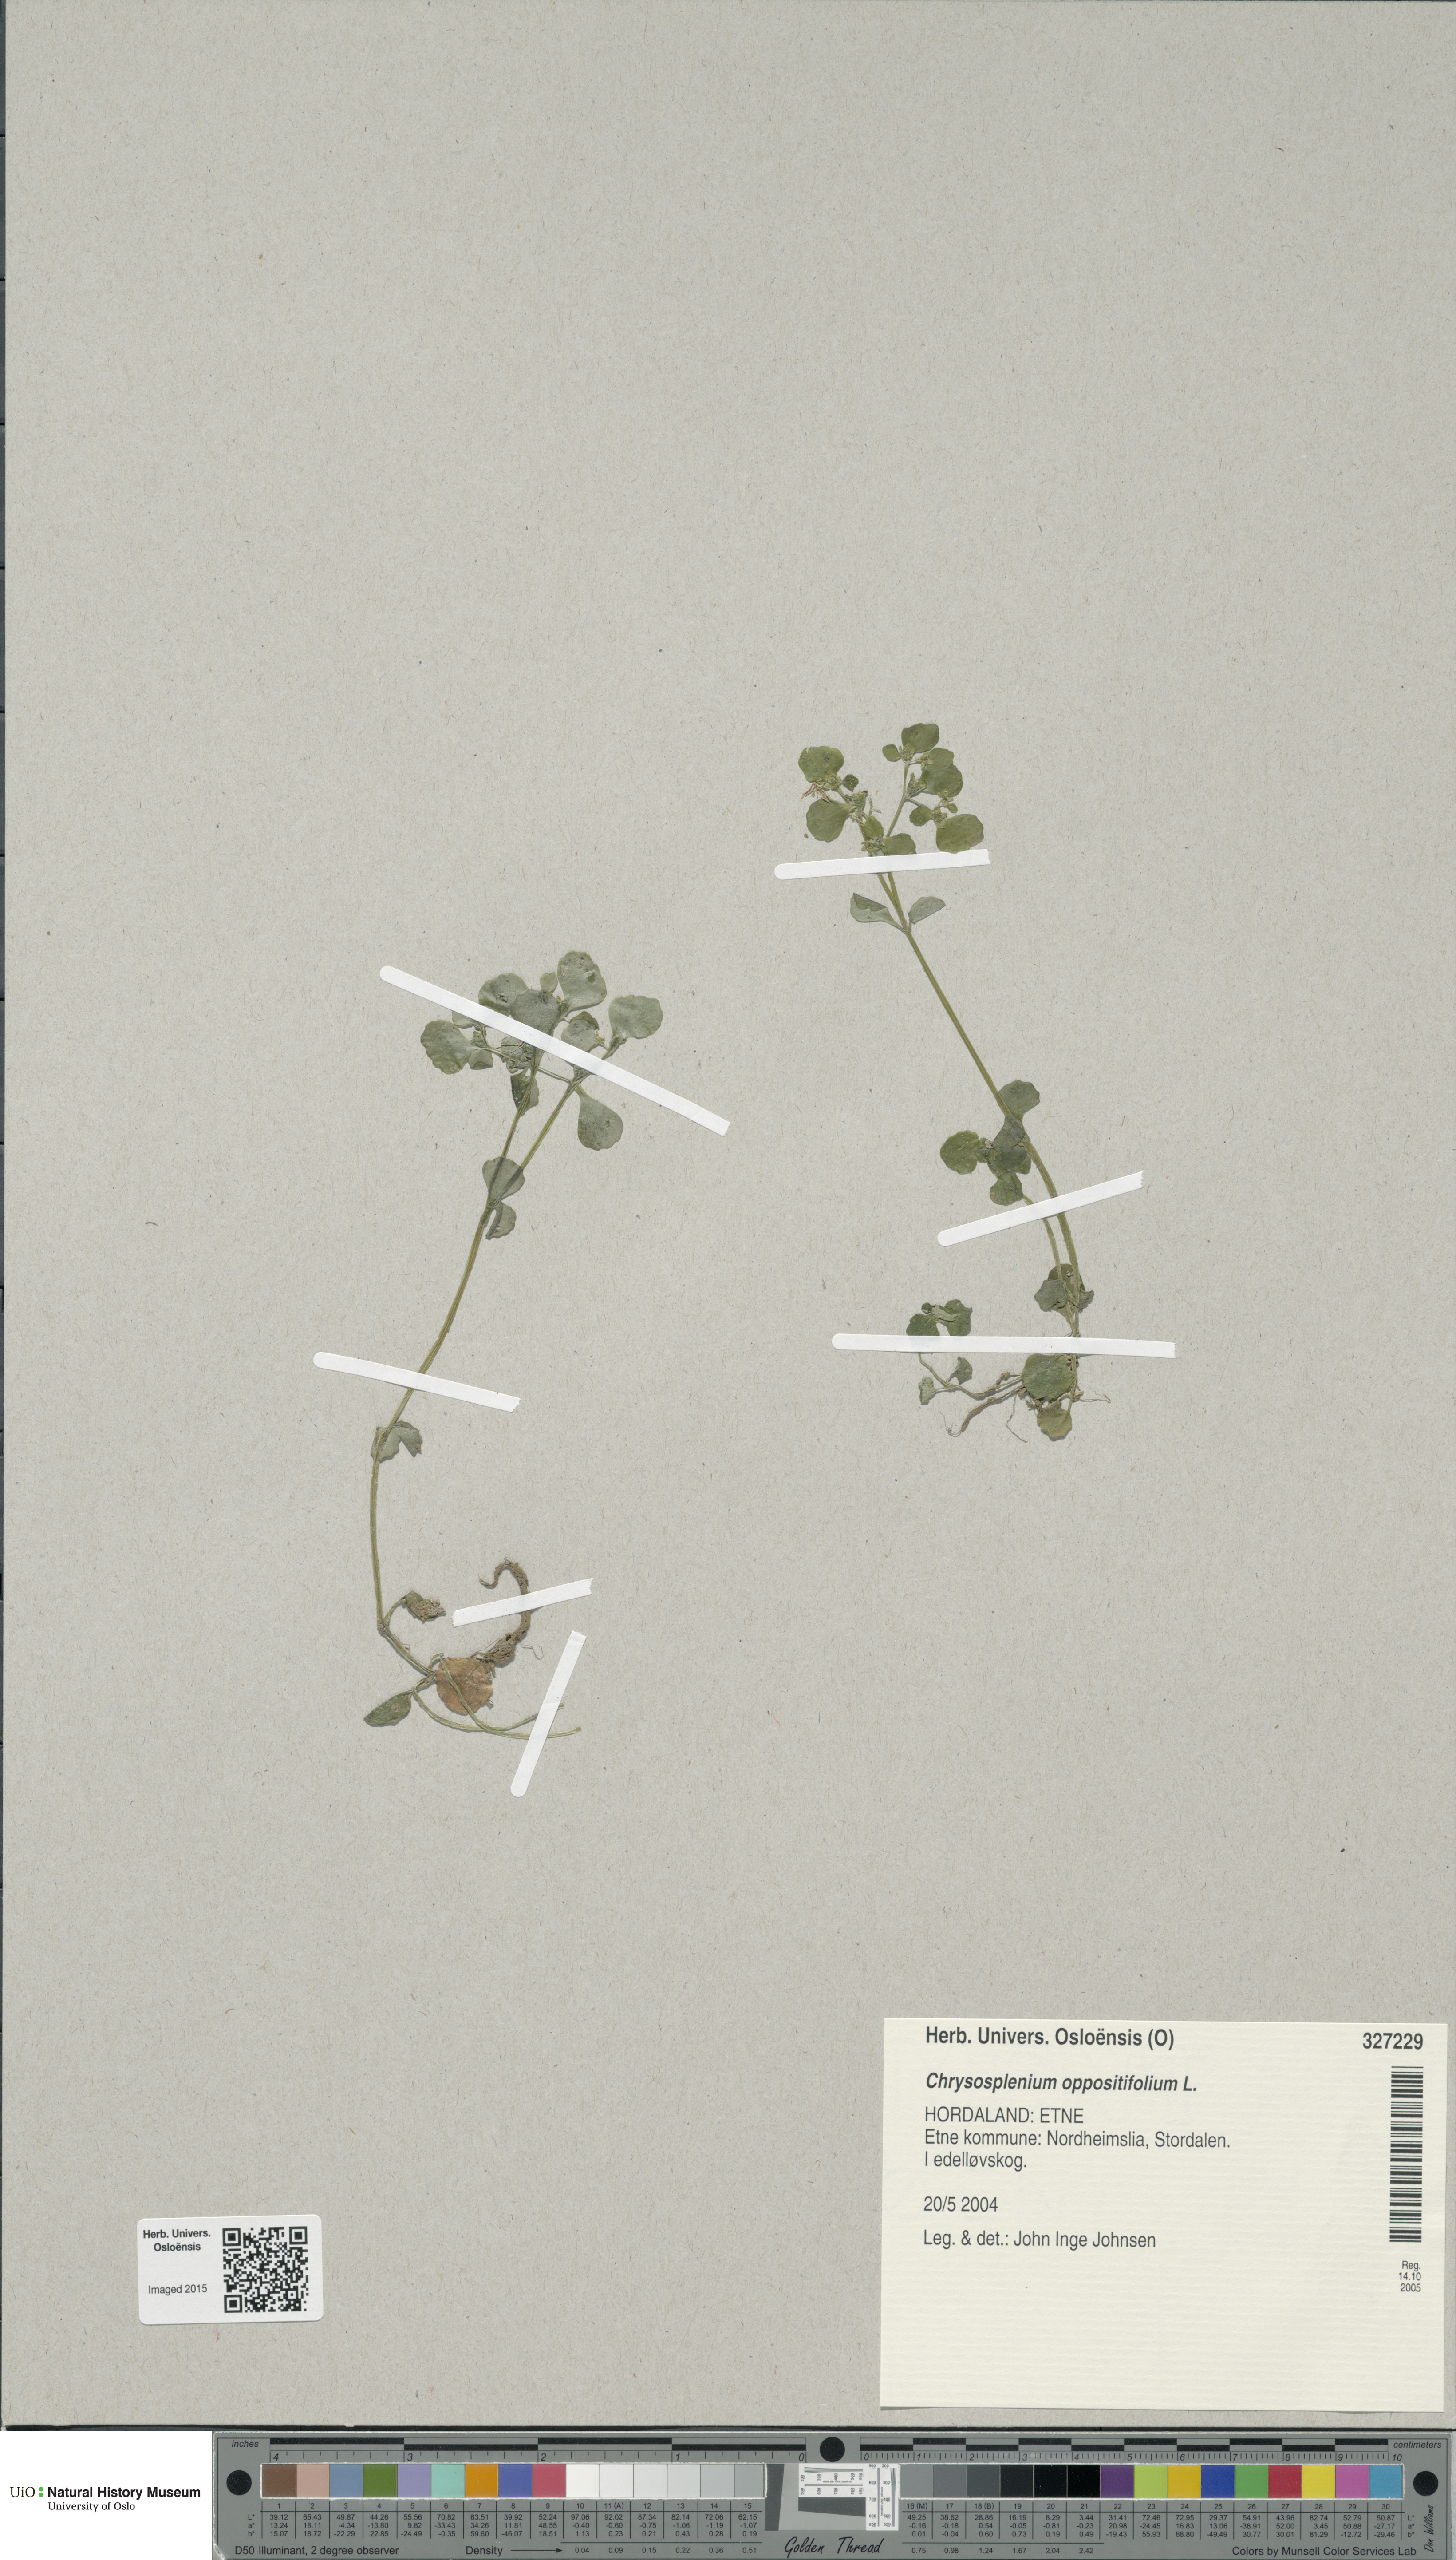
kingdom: Plantae
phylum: Tracheophyta
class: Magnoliopsida
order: Saxifragales
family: Saxifragaceae
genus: Chrysosplenium
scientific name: Chrysosplenium oppositifolium
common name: Opposite-leaved golden-saxifrage
